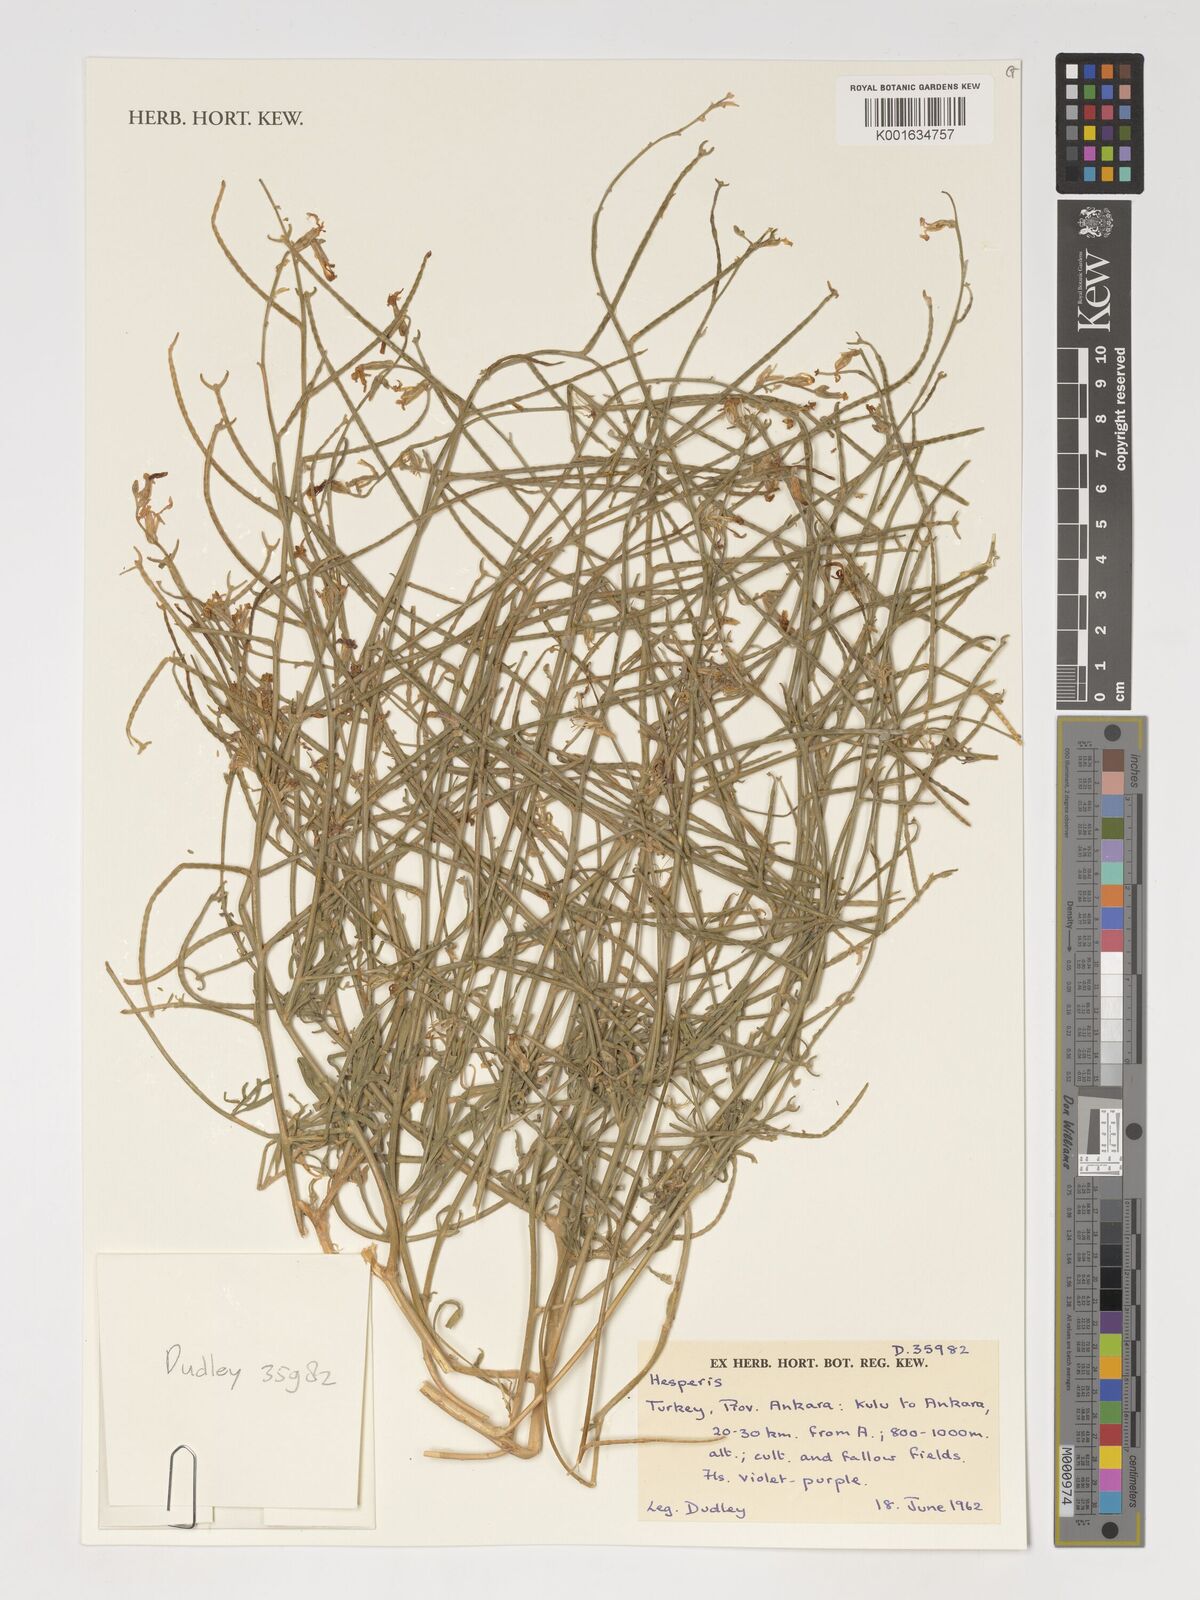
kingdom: Plantae
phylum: Tracheophyta
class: Magnoliopsida
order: Brassicales
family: Brassicaceae
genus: Hesperis
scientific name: Hesperis
